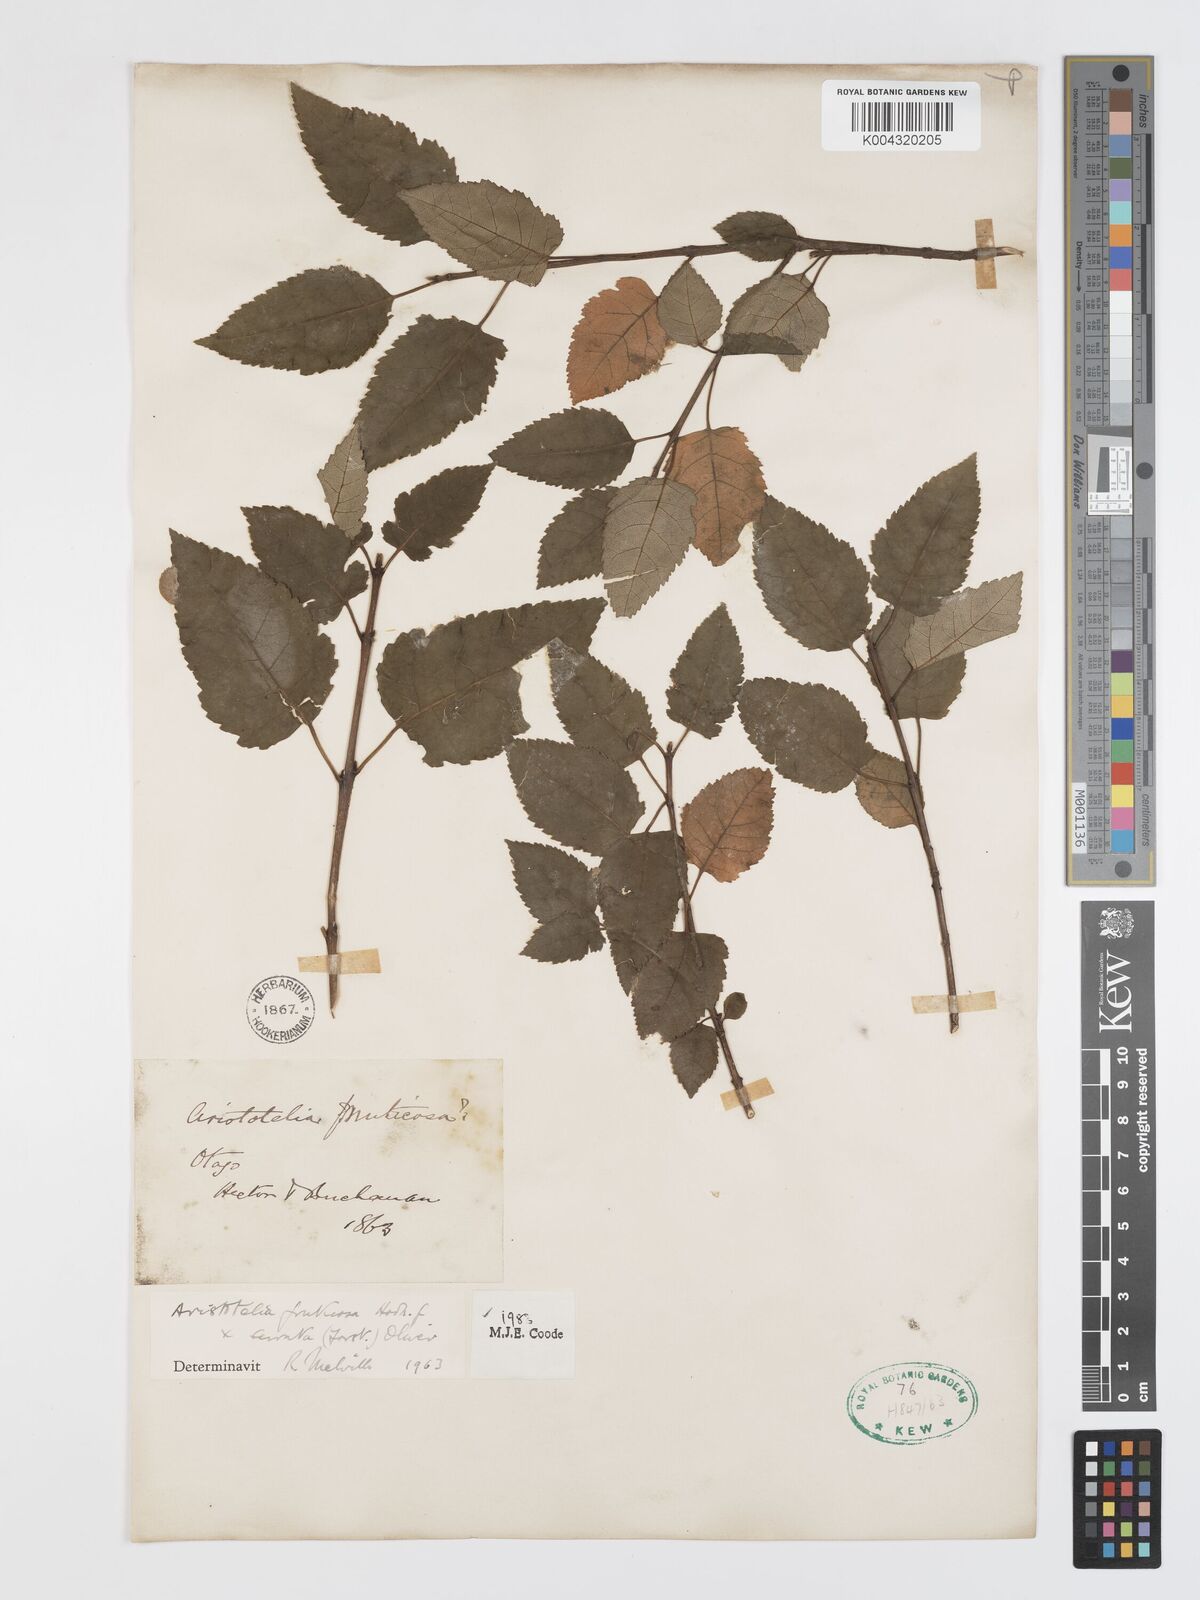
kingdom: Plantae
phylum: Tracheophyta
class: Magnoliopsida
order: Oxalidales
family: Elaeocarpaceae
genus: Aristotelia
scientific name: Aristotelia fruticosa
